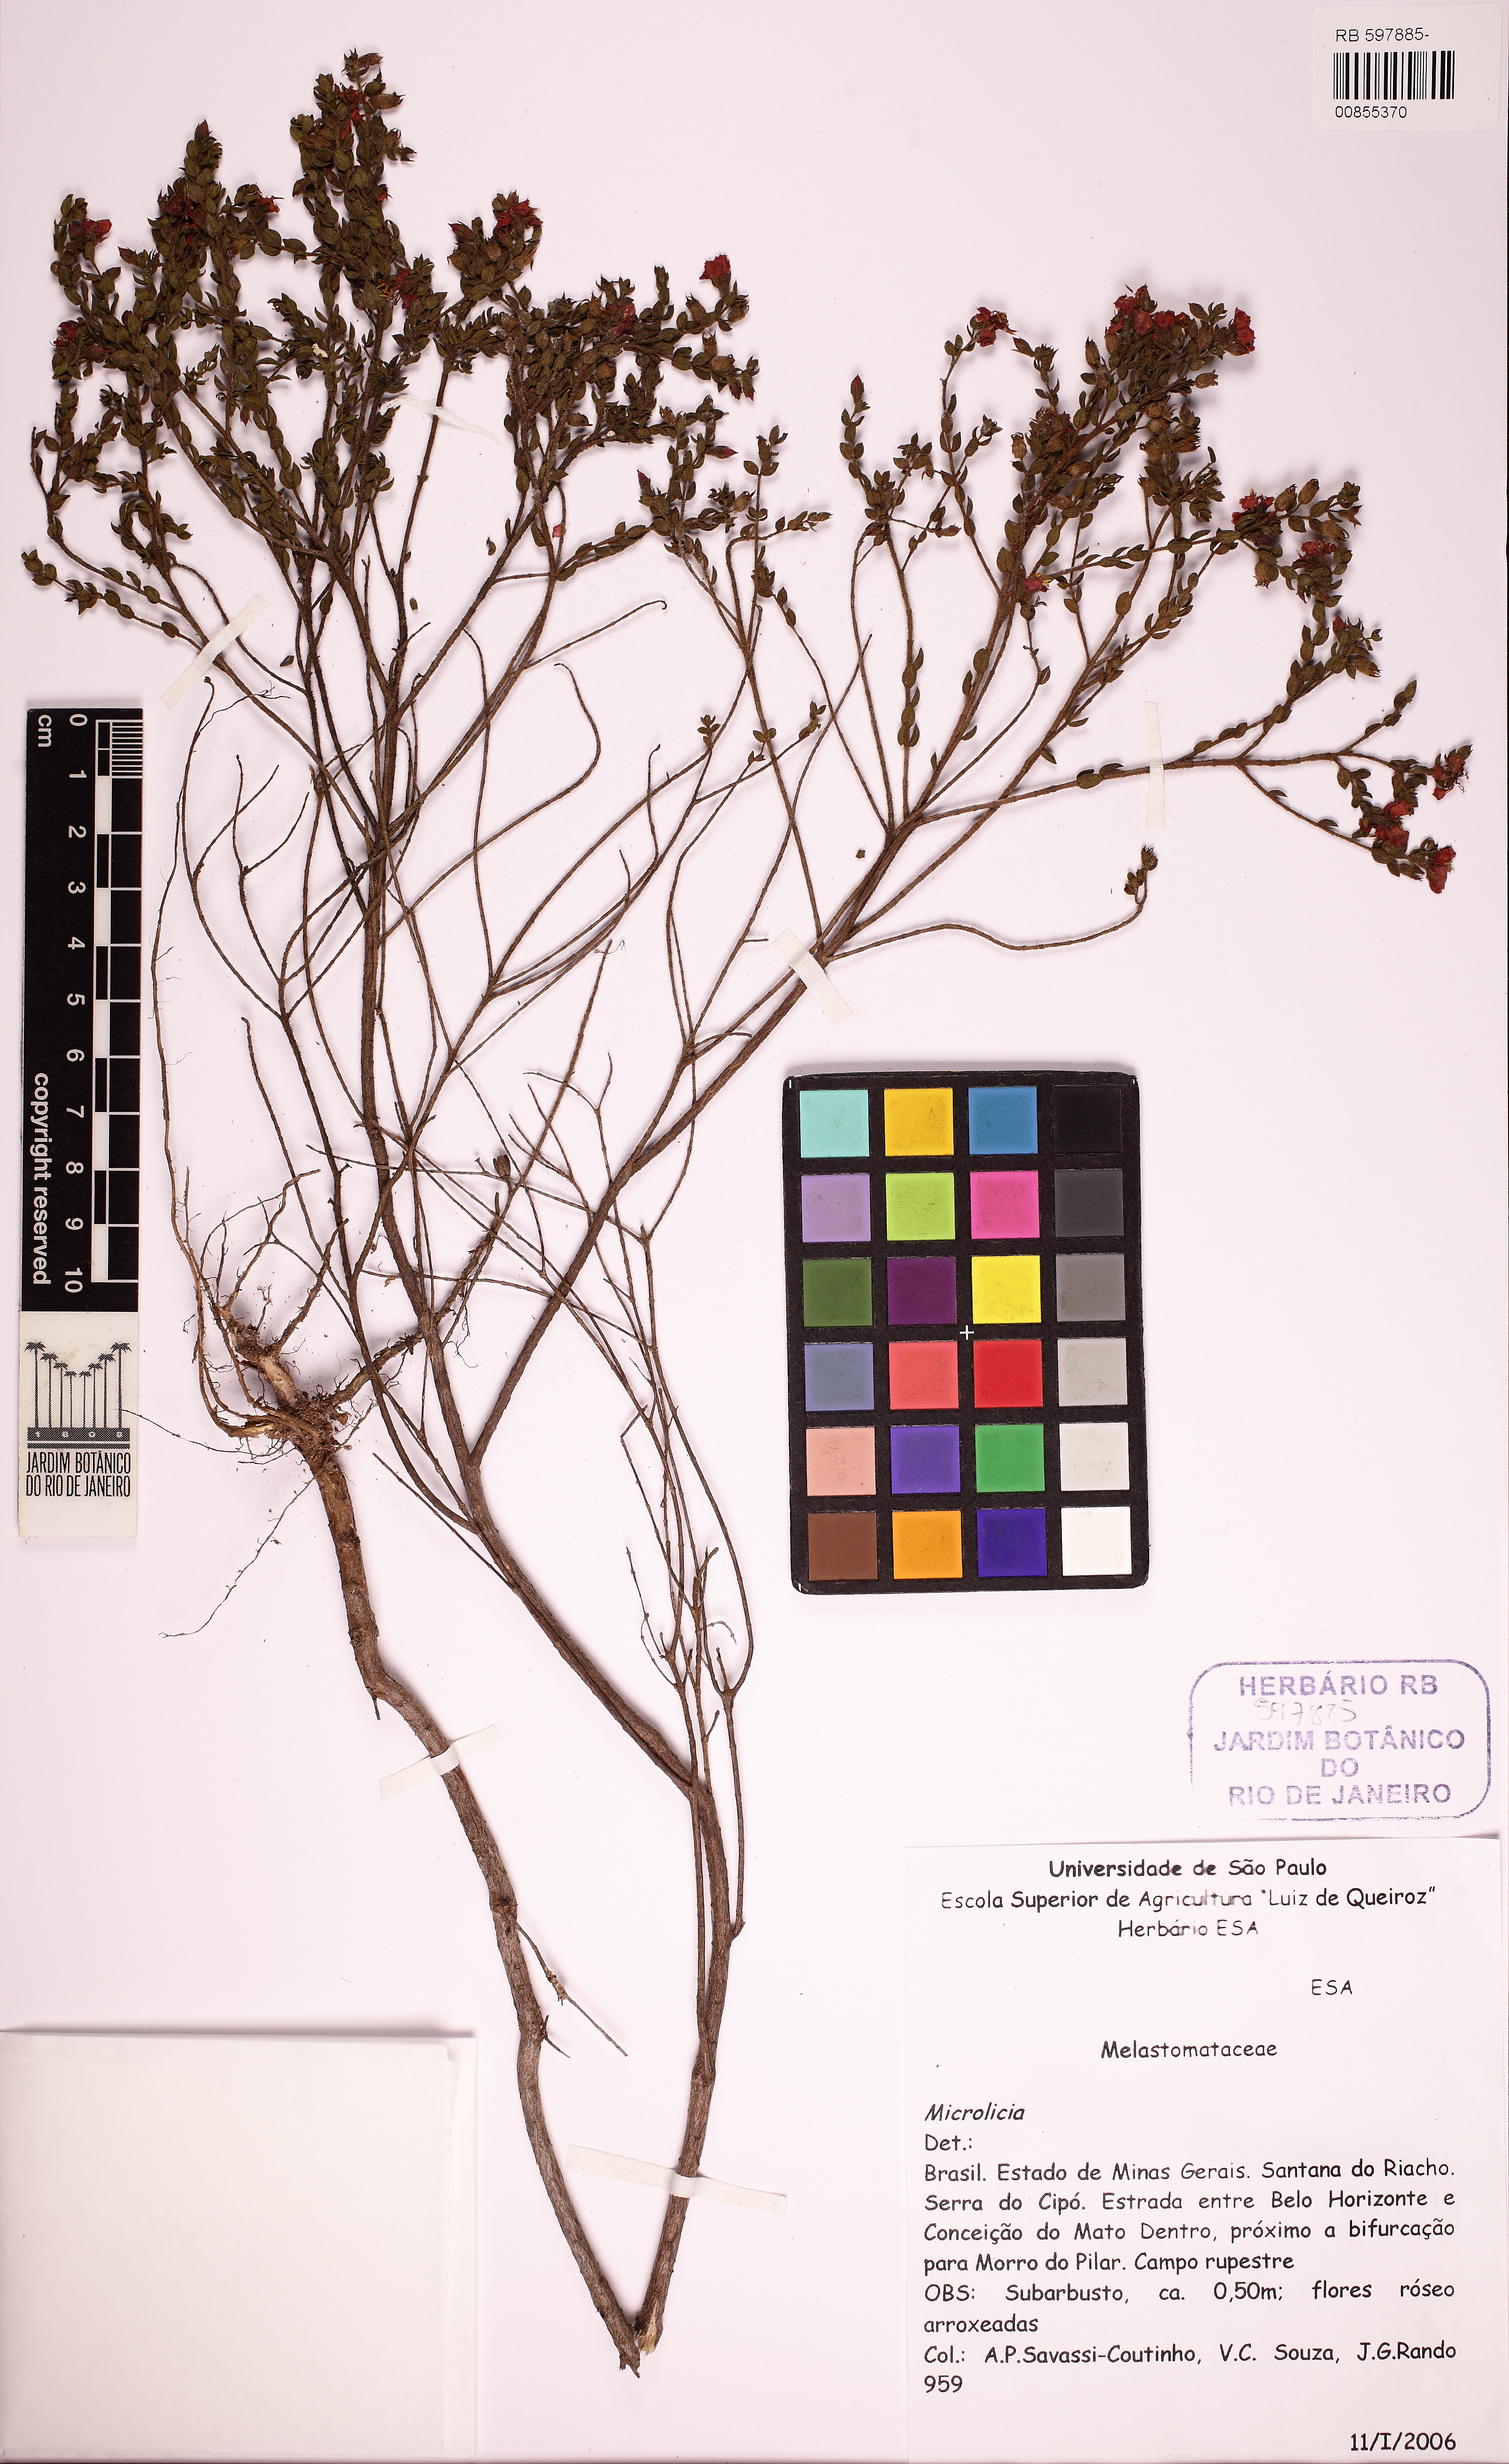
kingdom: Plantae
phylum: Tracheophyta
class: Magnoliopsida
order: Myrtales
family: Melastomataceae
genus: Microlicia
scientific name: Microlicia hirticalyx
